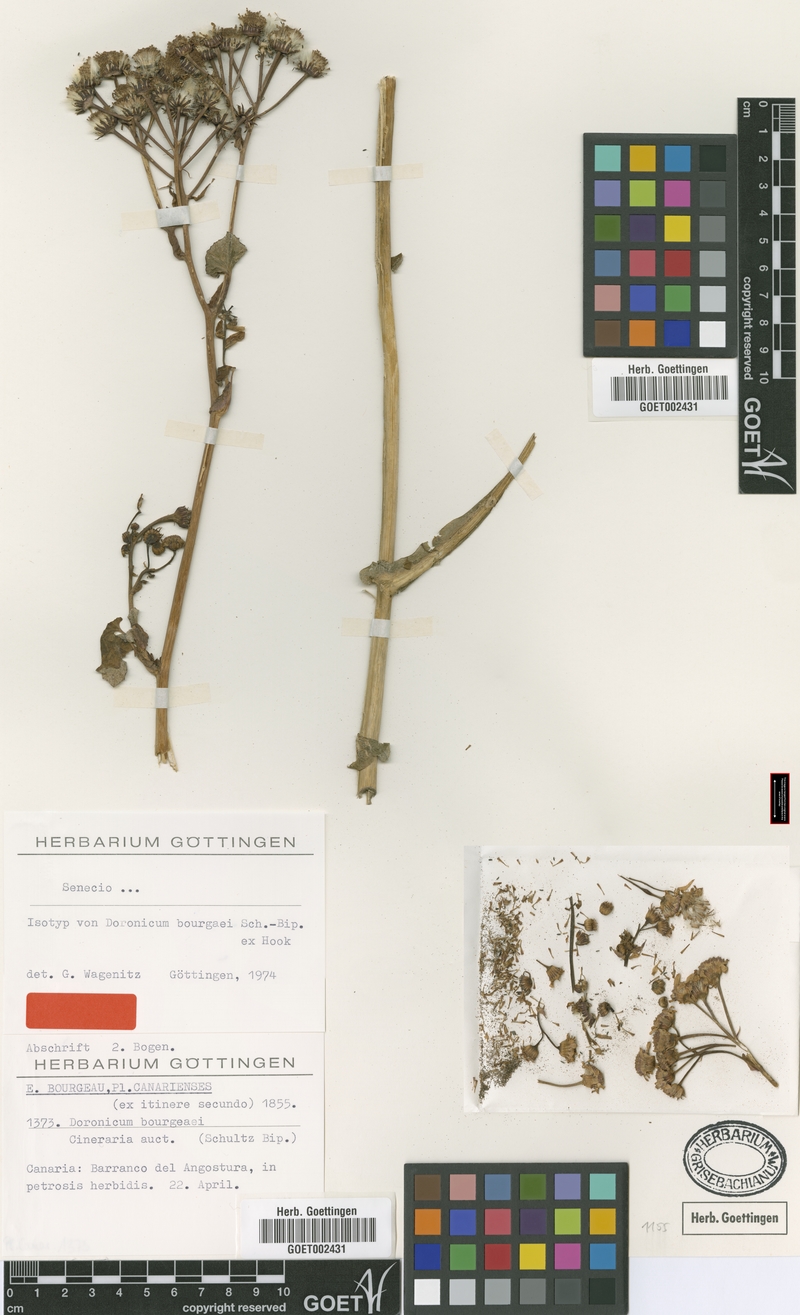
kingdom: Plantae
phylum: Tracheophyta
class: Magnoliopsida
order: Asterales
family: Asteraceae
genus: Pericallis
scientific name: Pericallis webbii
